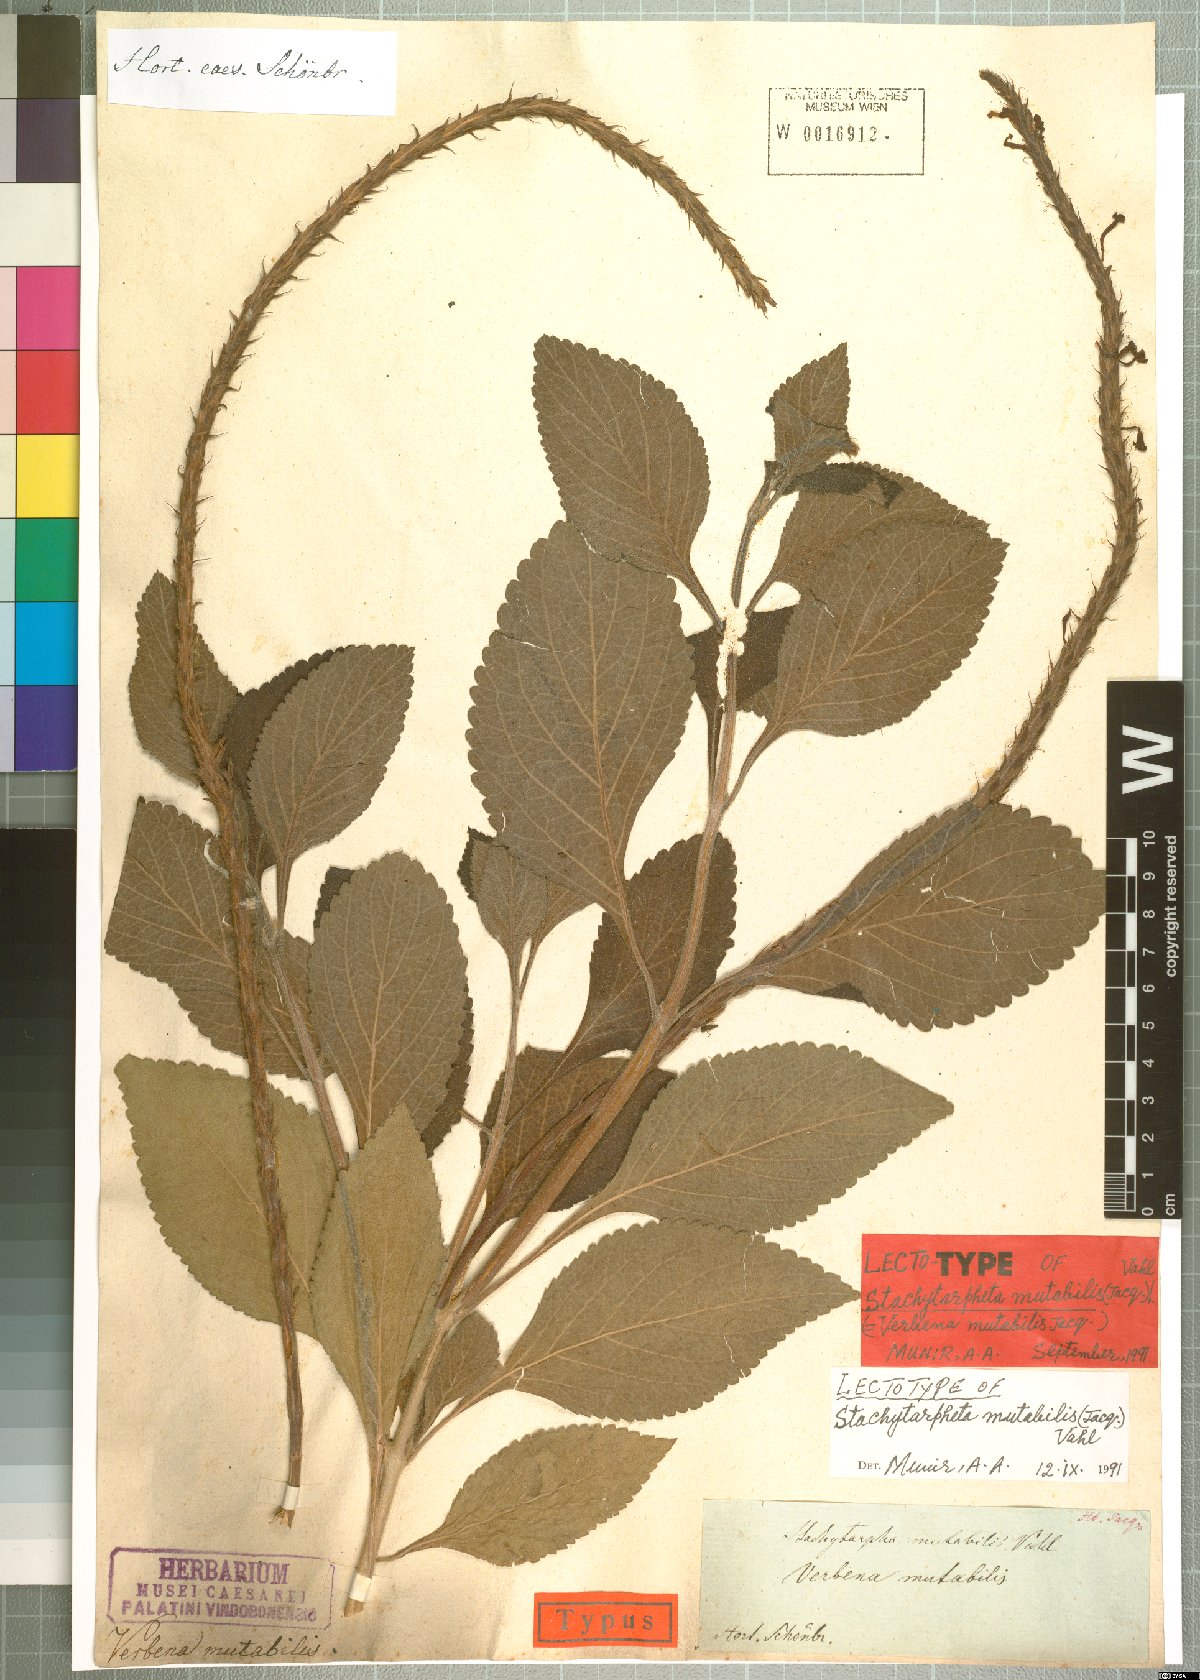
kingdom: Plantae
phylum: Tracheophyta
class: Magnoliopsida
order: Lamiales
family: Verbenaceae
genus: Stachytarpheta
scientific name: Stachytarpheta mutabilis
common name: Changeable velvetberry
